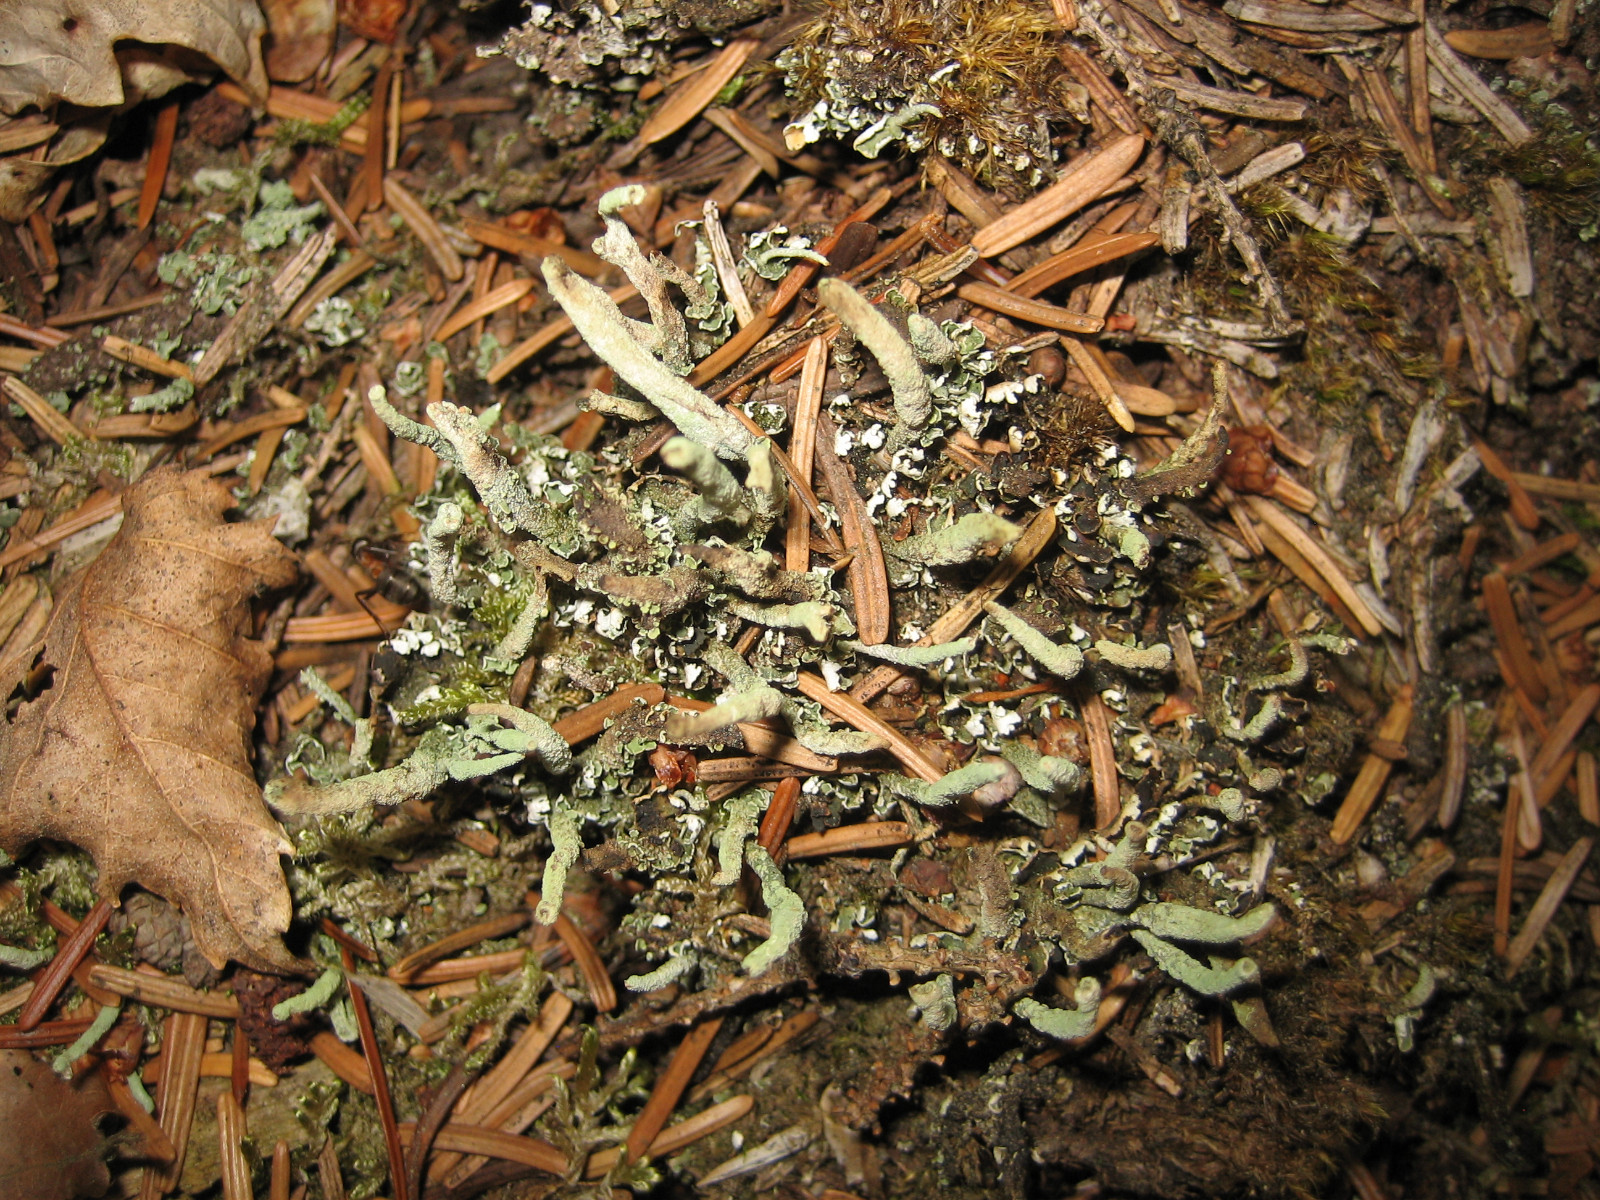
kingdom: Fungi
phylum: Ascomycota
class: Lecanoromycetes
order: Lecanorales
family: Cladoniaceae
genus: Cladonia
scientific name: Cladonia ochrochlora
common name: stød-bægerlav
